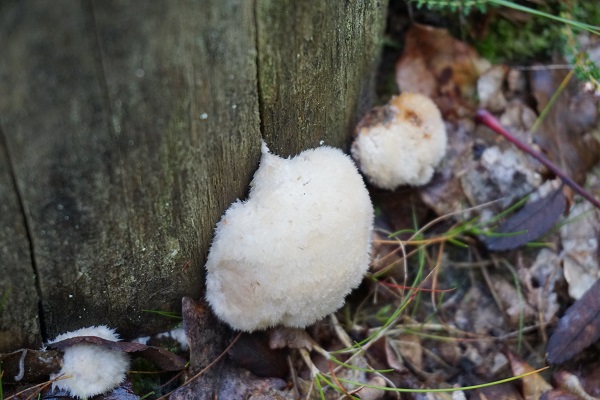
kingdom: Fungi
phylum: Basidiomycota
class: Agaricomycetes
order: Polyporales
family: Dacryobolaceae
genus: Postia
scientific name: Postia ptychogaster
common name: støvende kødporesvamp
